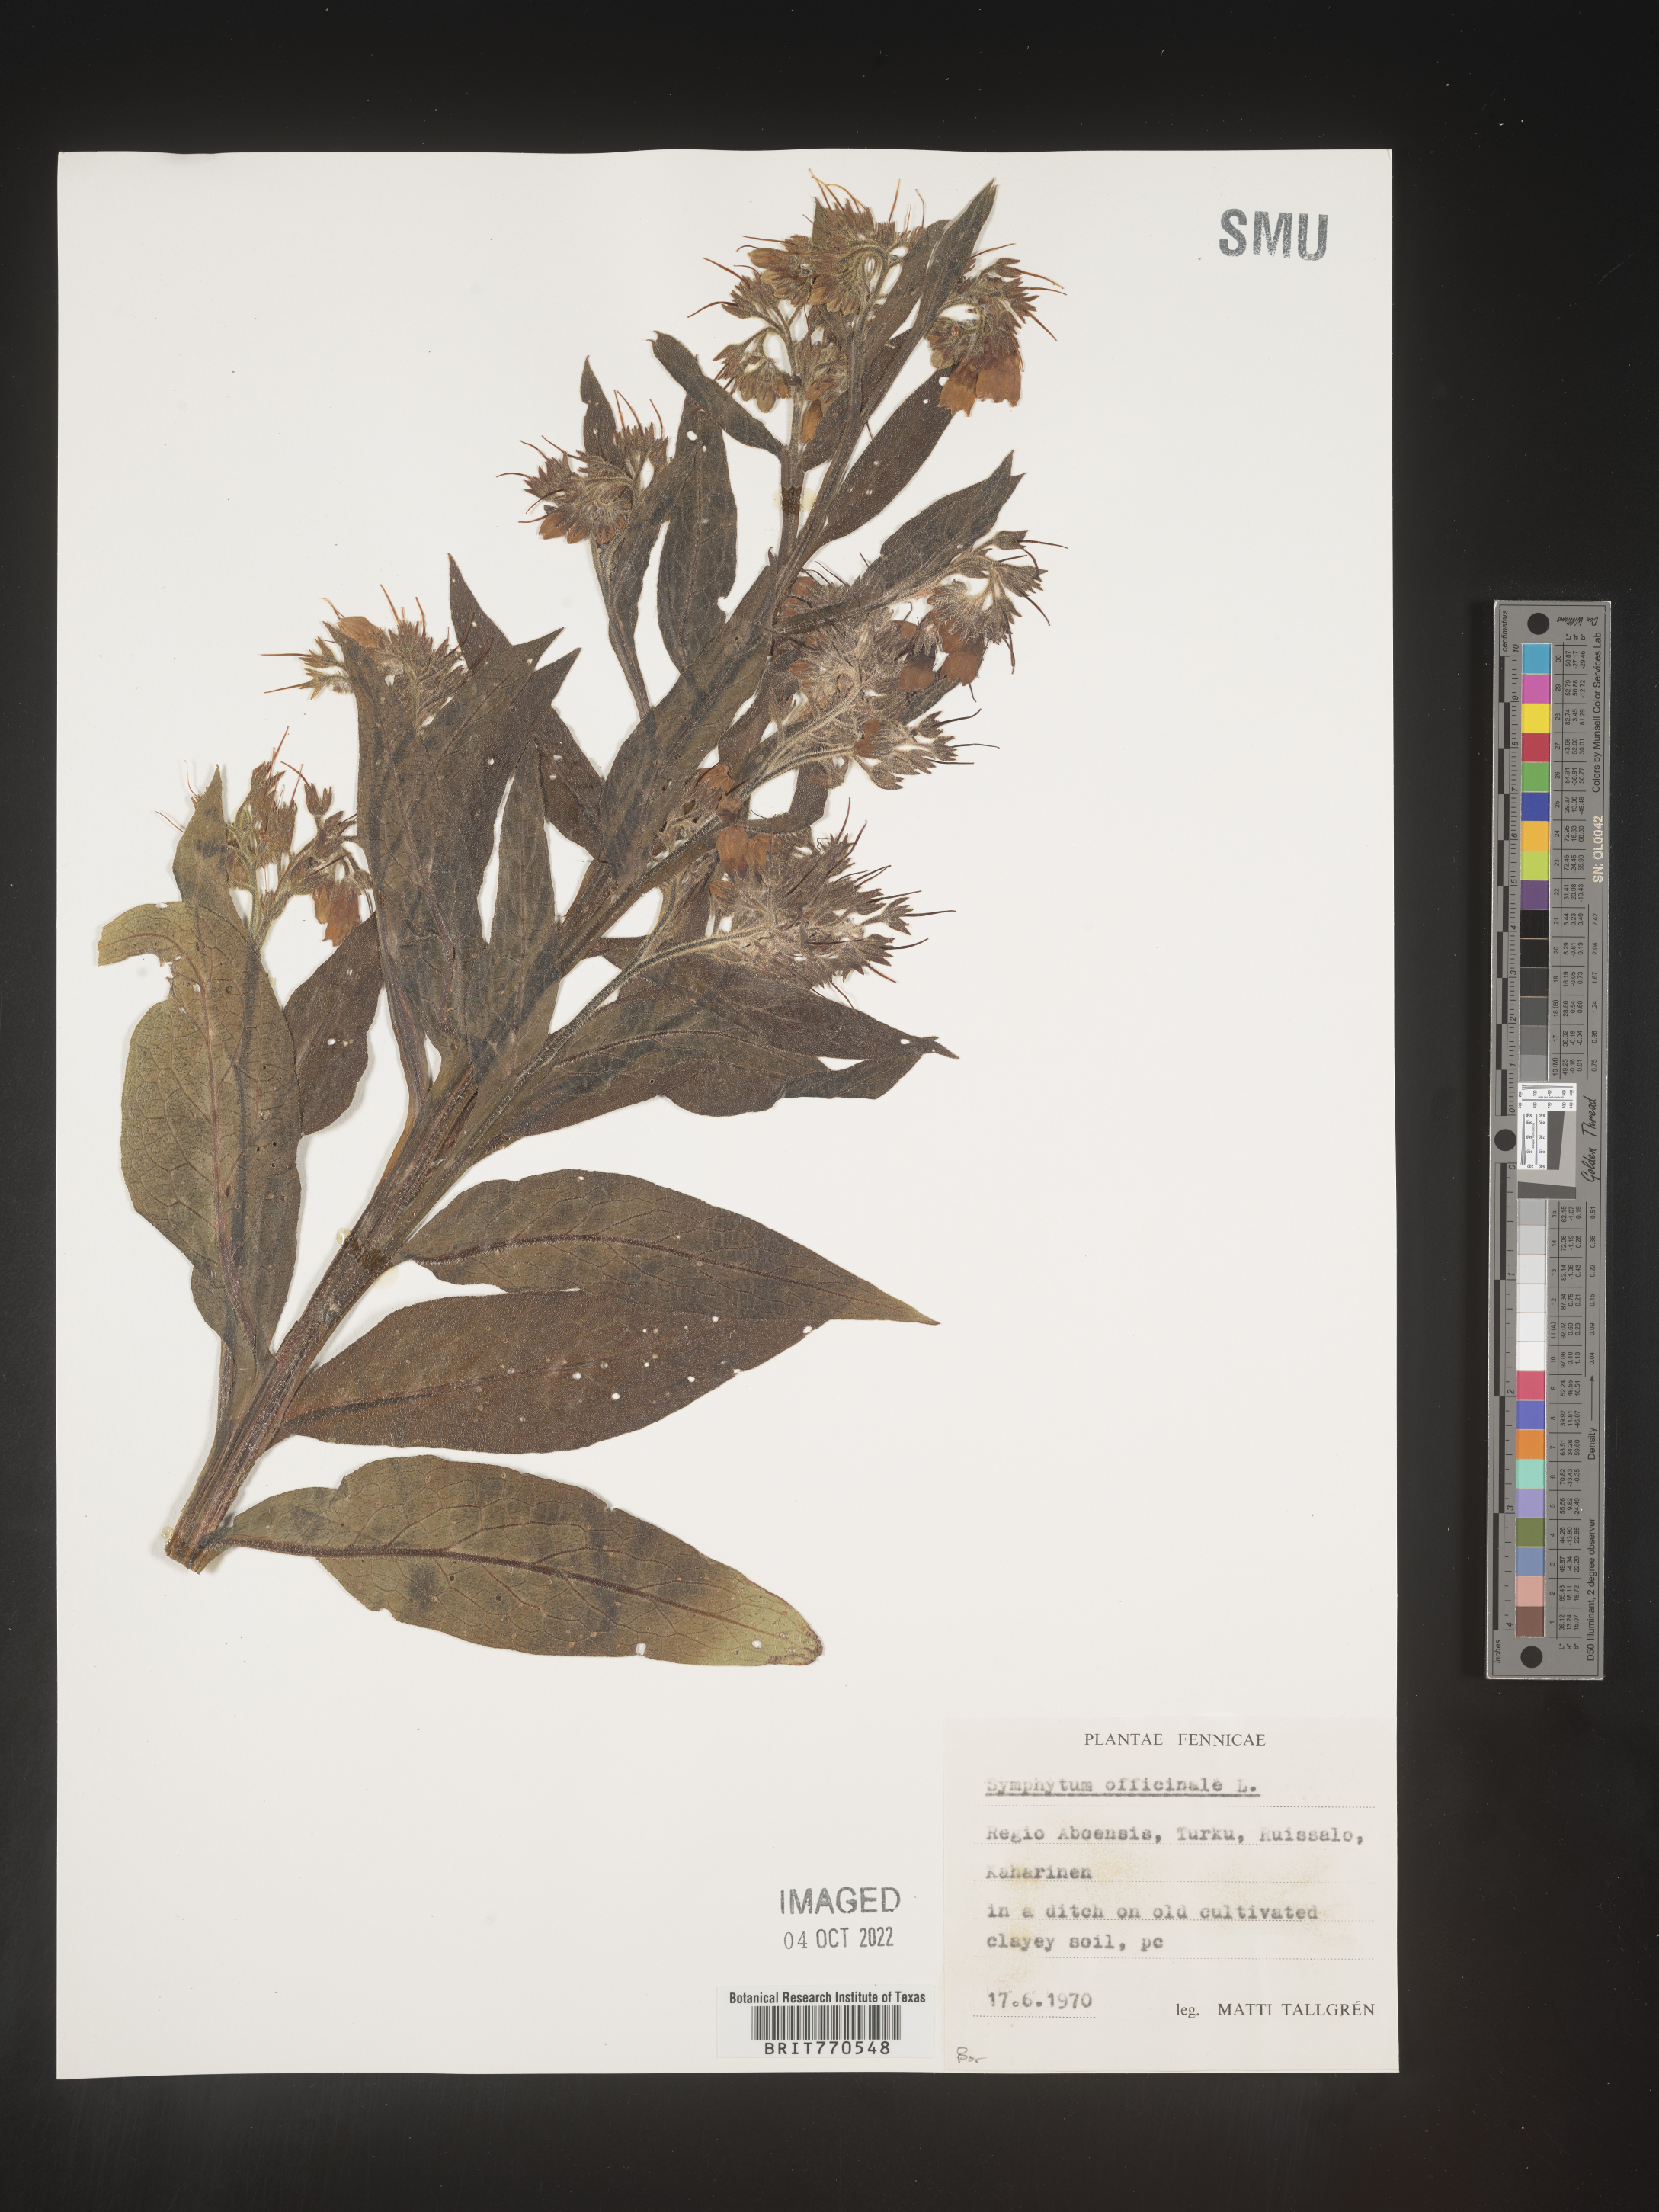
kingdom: Plantae
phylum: Tracheophyta
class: Magnoliopsida
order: Boraginales
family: Boraginaceae
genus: Symphytum
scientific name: Symphytum
